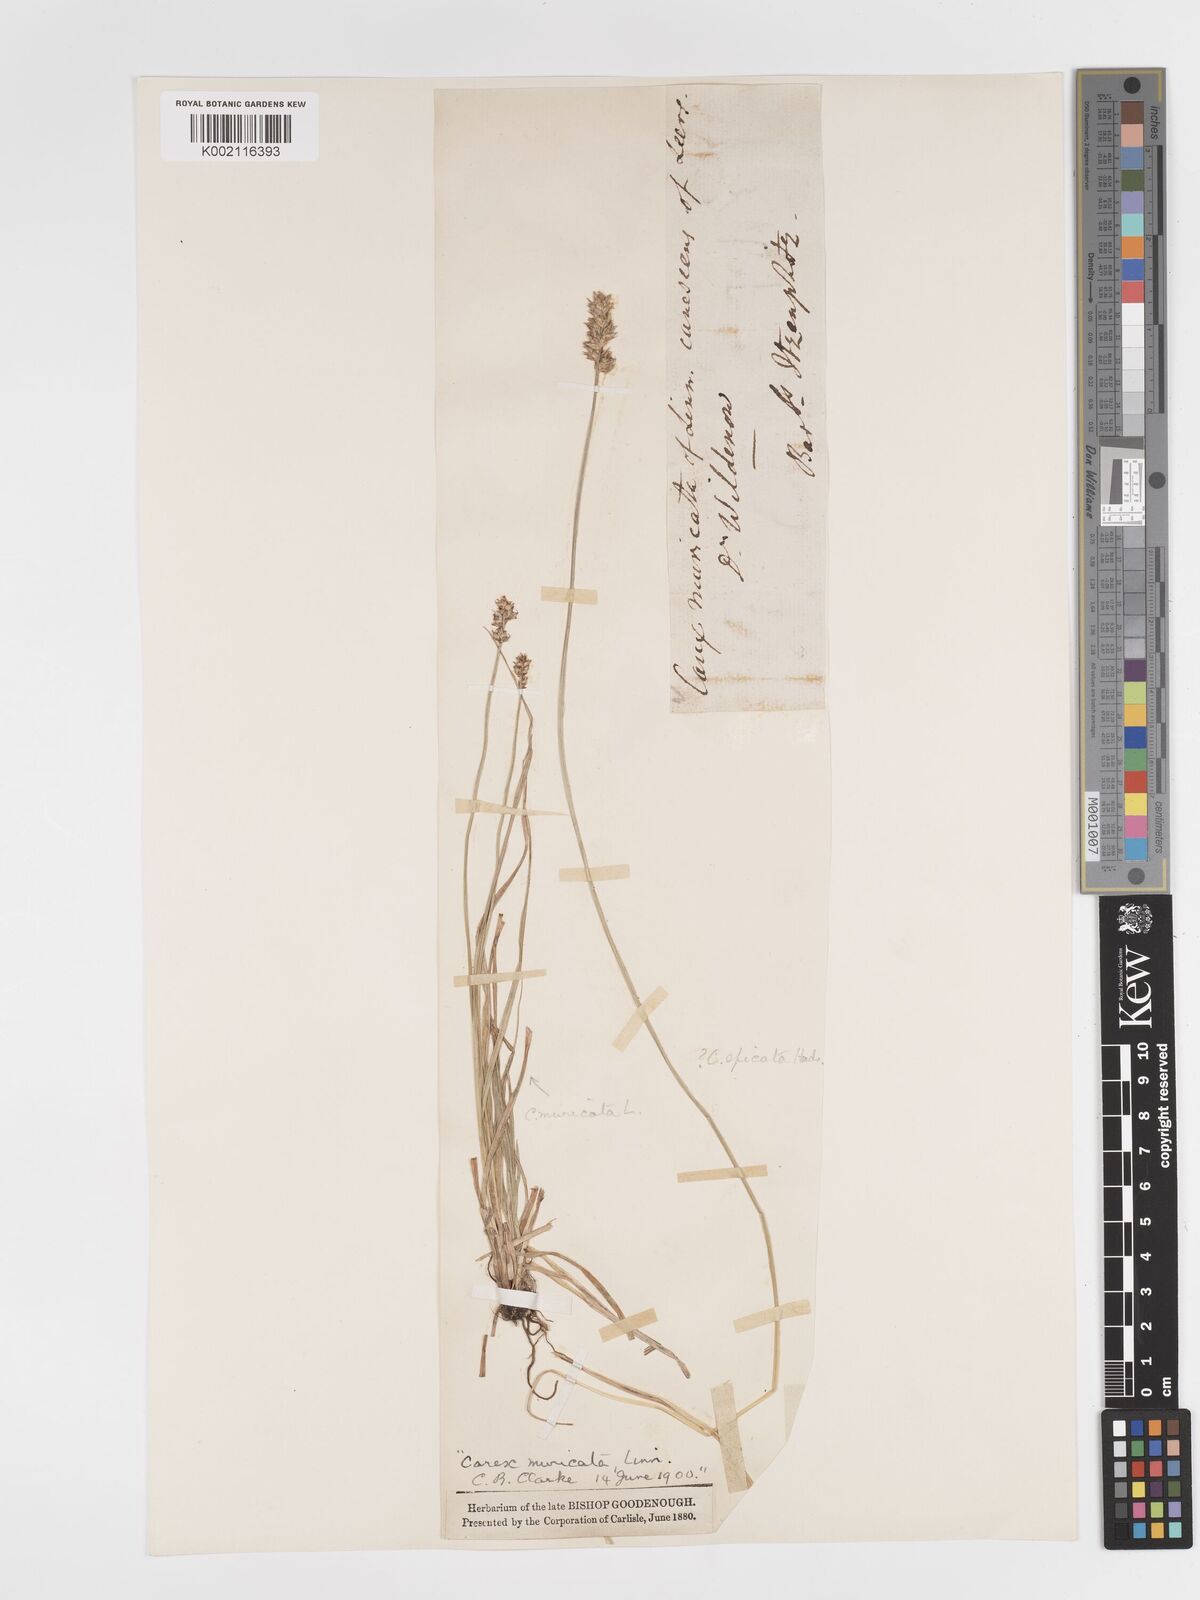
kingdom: Plantae
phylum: Tracheophyta
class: Liliopsida
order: Poales
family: Cyperaceae
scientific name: Cyperaceae
